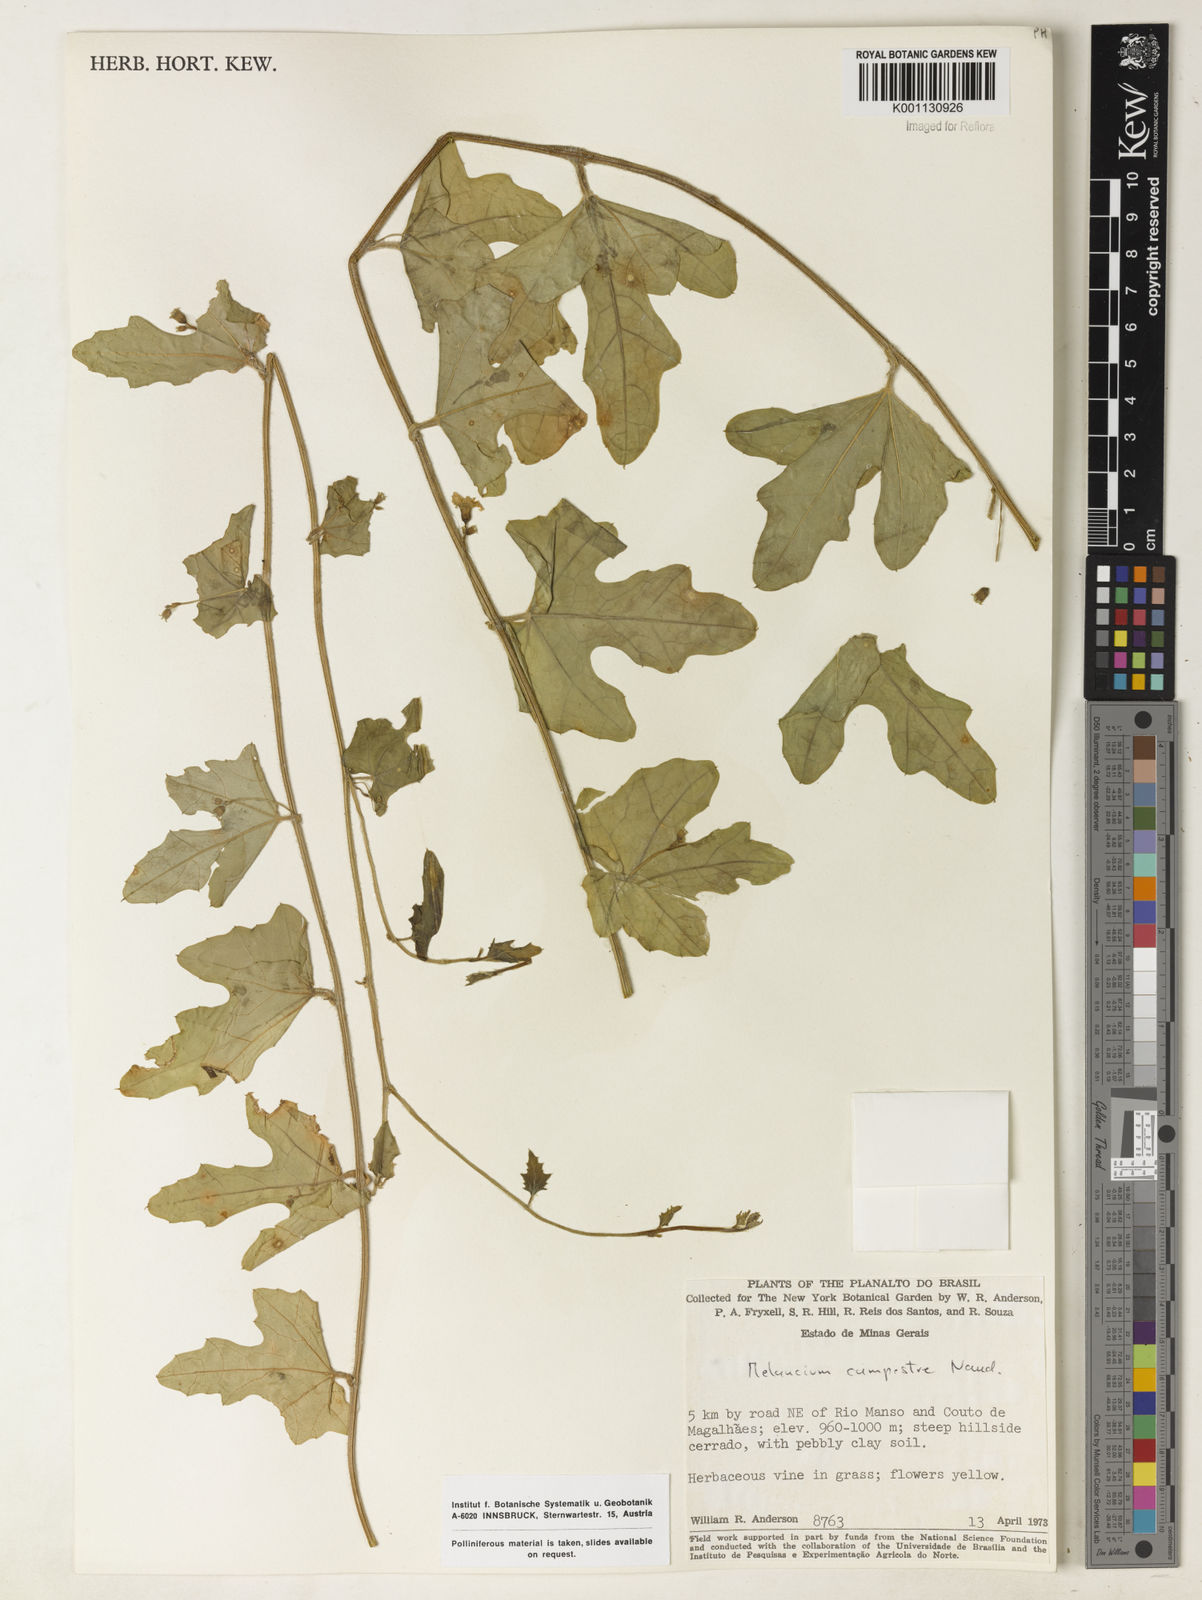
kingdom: Plantae
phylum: Tracheophyta
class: Magnoliopsida
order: Cucurbitales
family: Cucurbitaceae
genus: Melothria
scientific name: Melothria campestris
